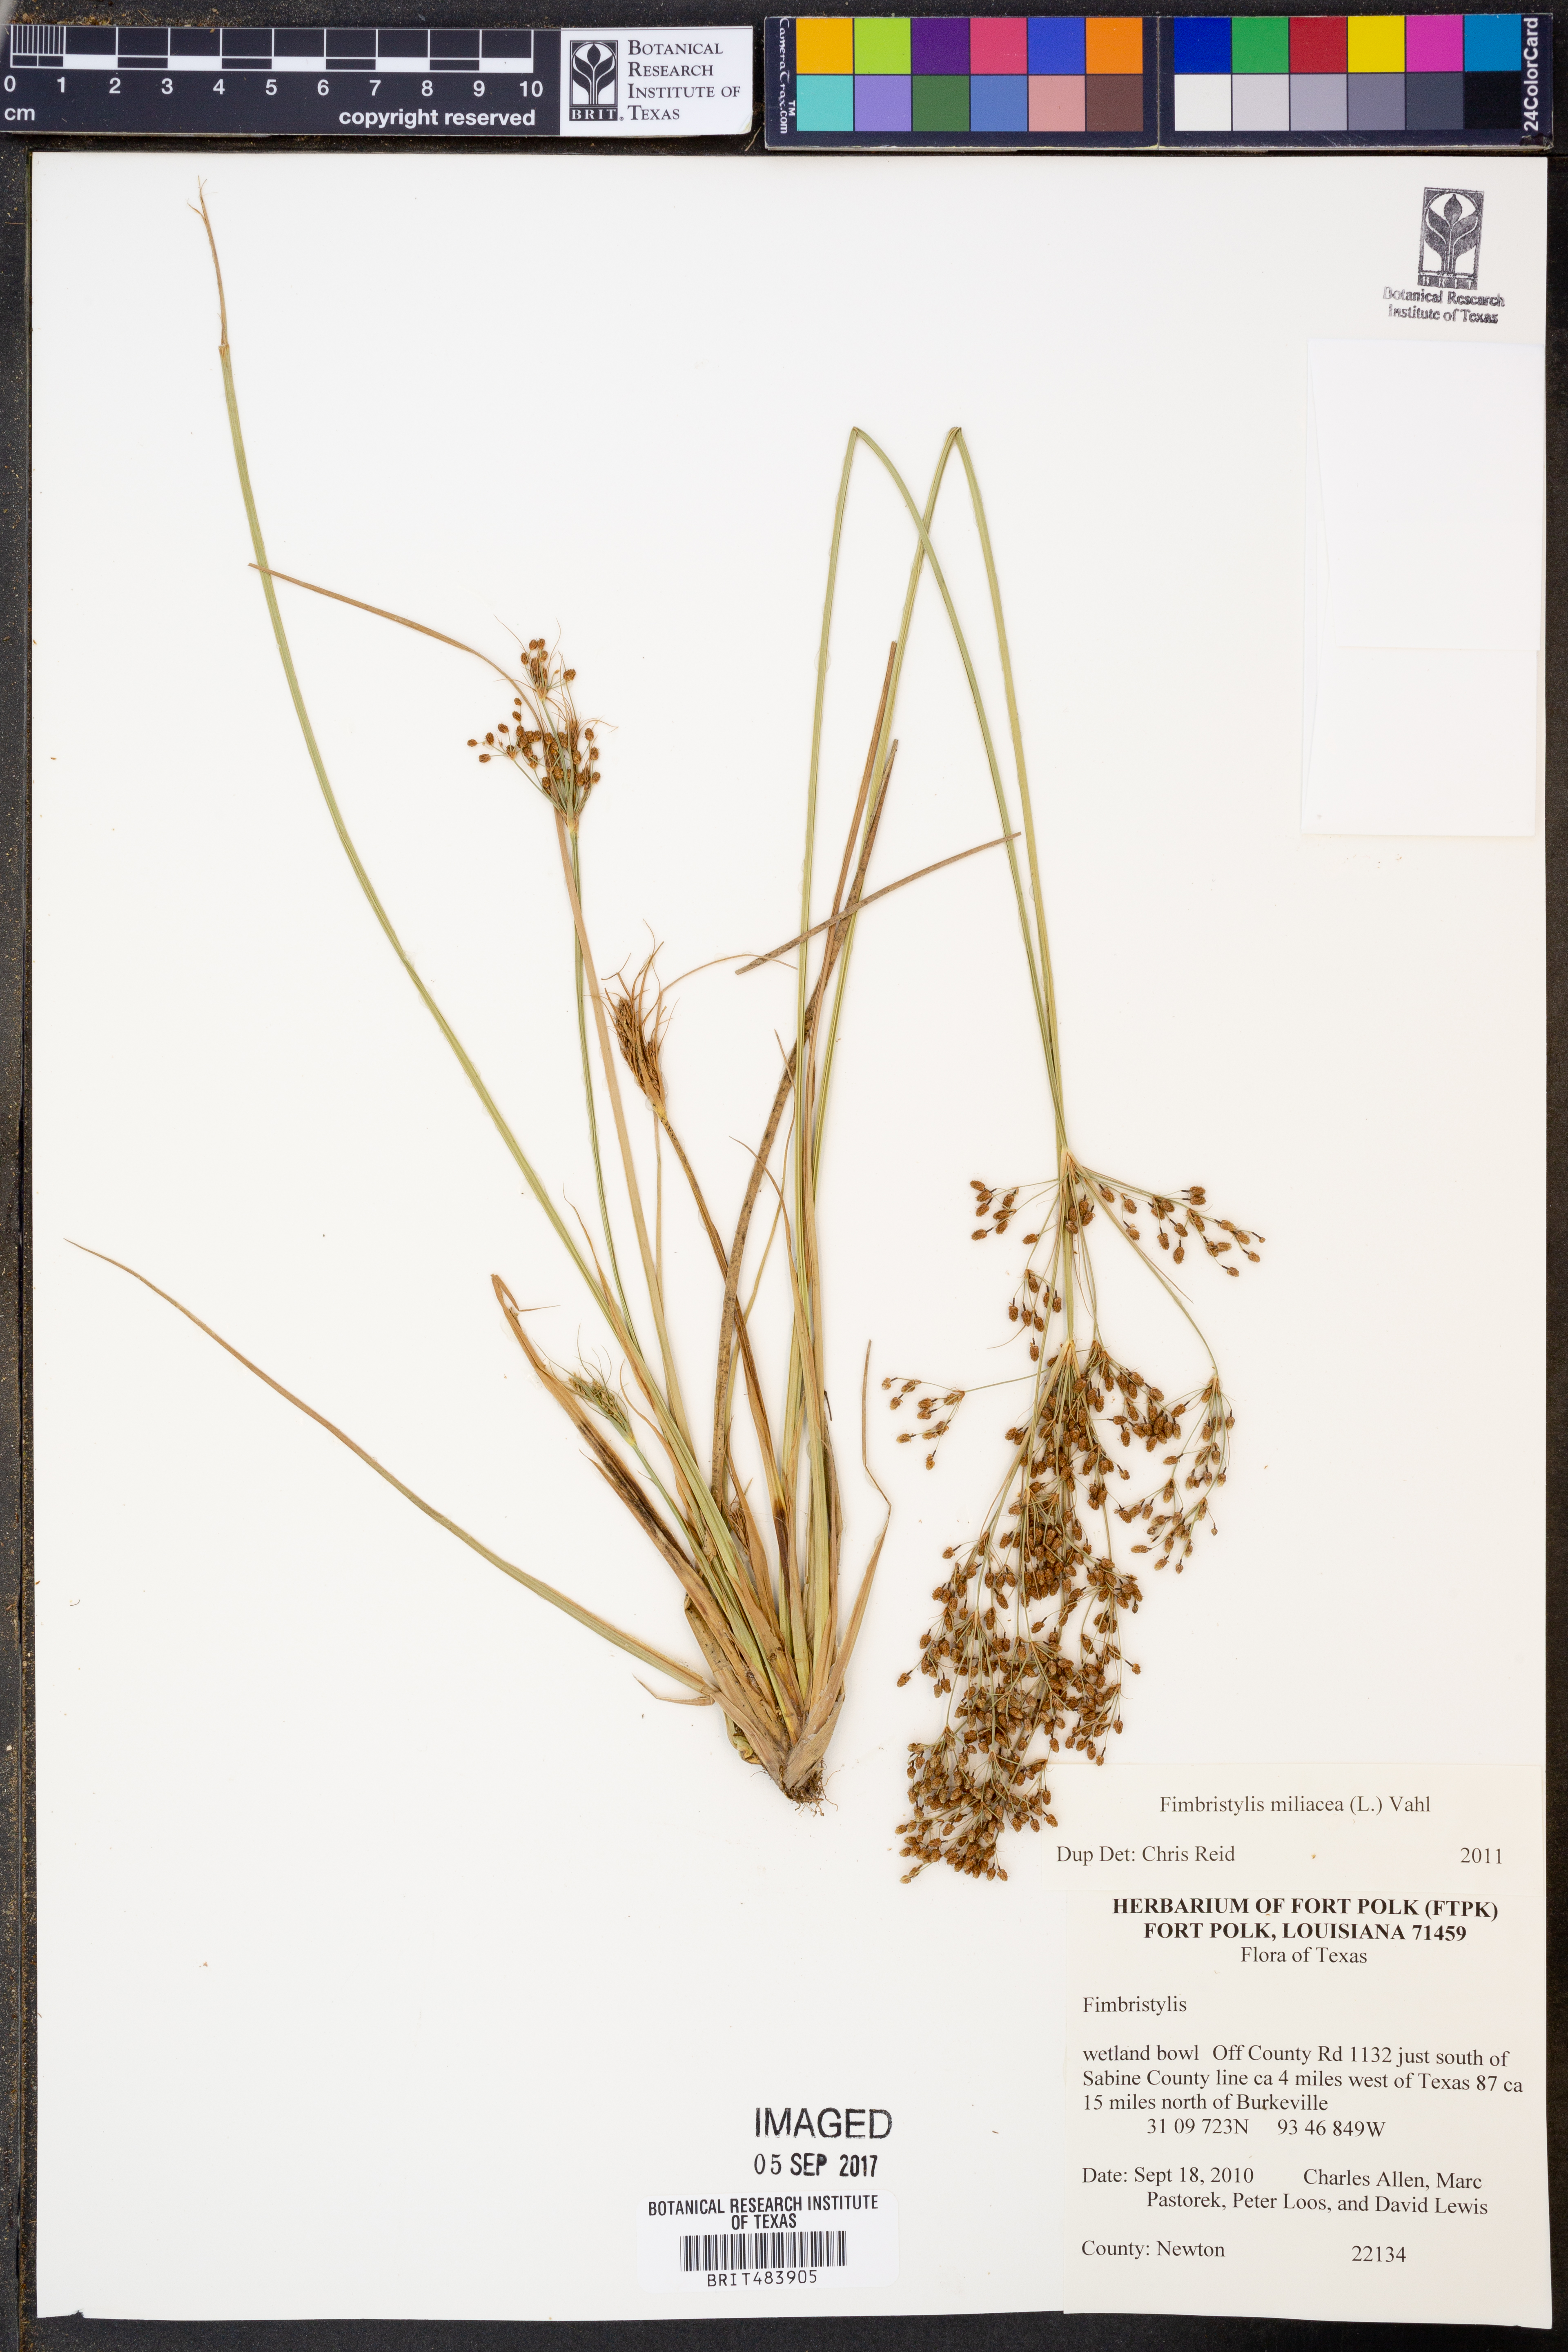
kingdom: Plantae
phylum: Tracheophyta
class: Liliopsida
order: Poales
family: Cyperaceae
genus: Fimbristylis
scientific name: Fimbristylis quinquangularis
